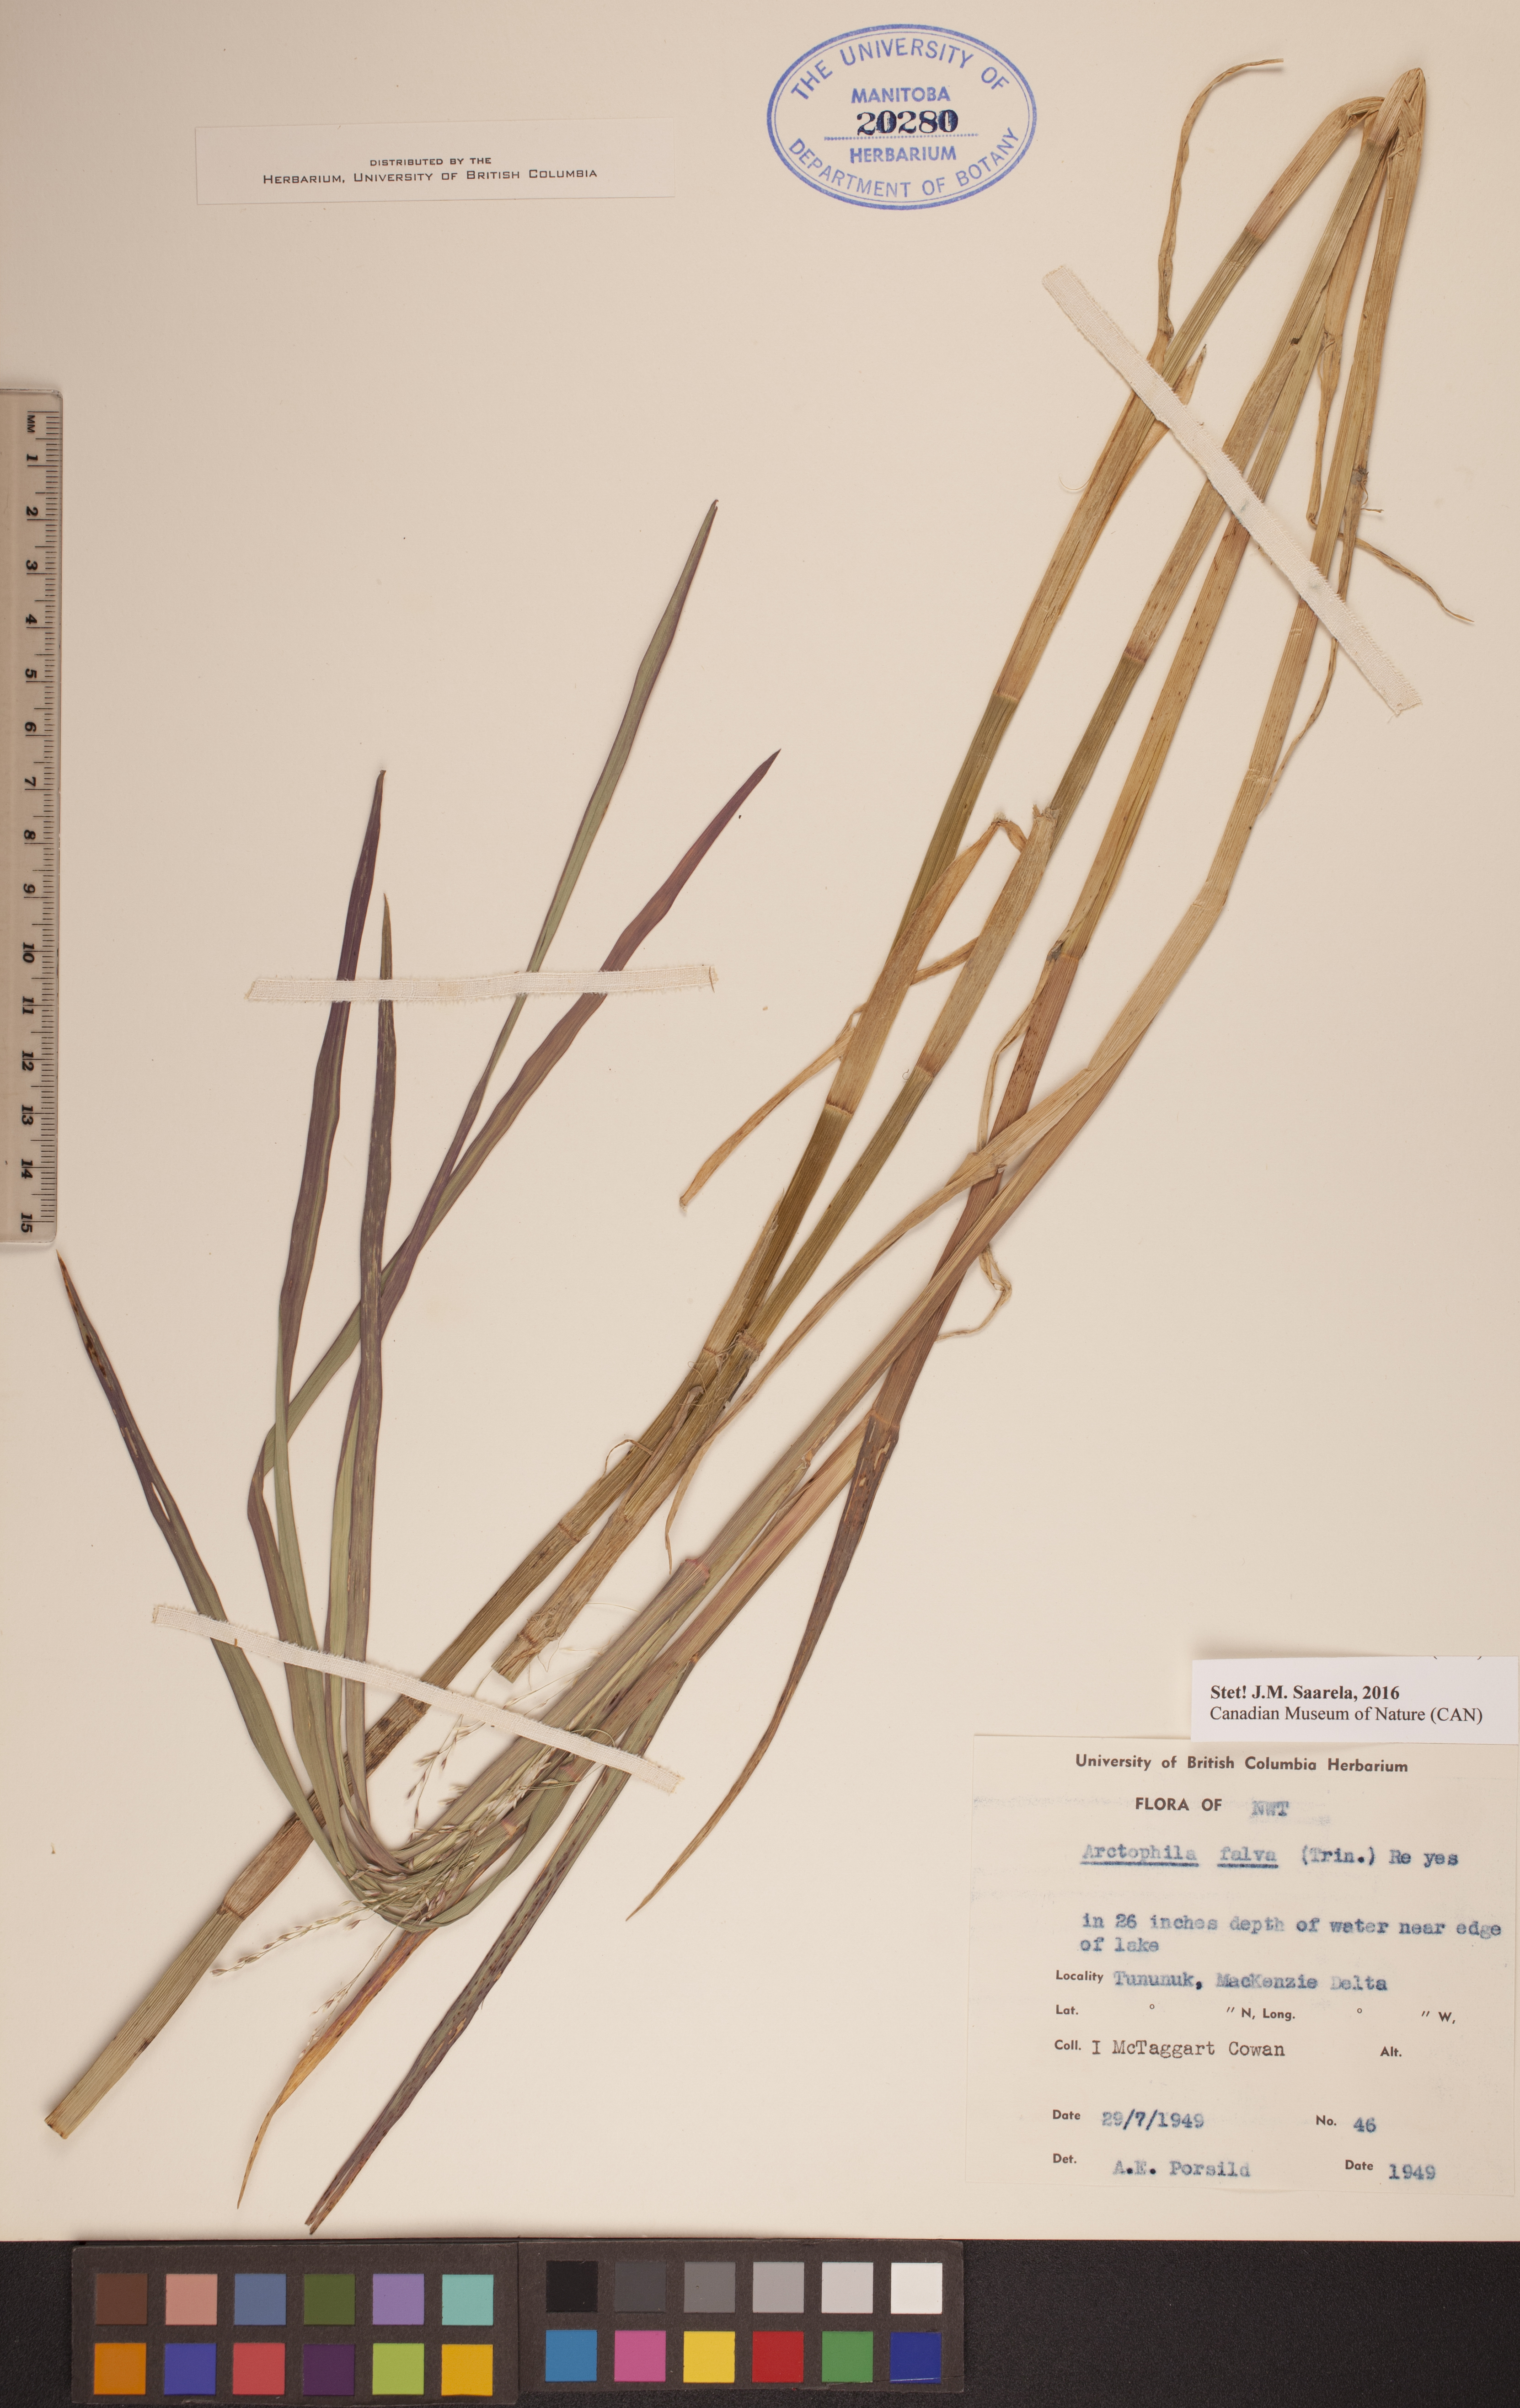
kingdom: Plantae
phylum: Tracheophyta
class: Liliopsida
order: Poales
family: Poaceae
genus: Dupontia
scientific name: Dupontia fulva
